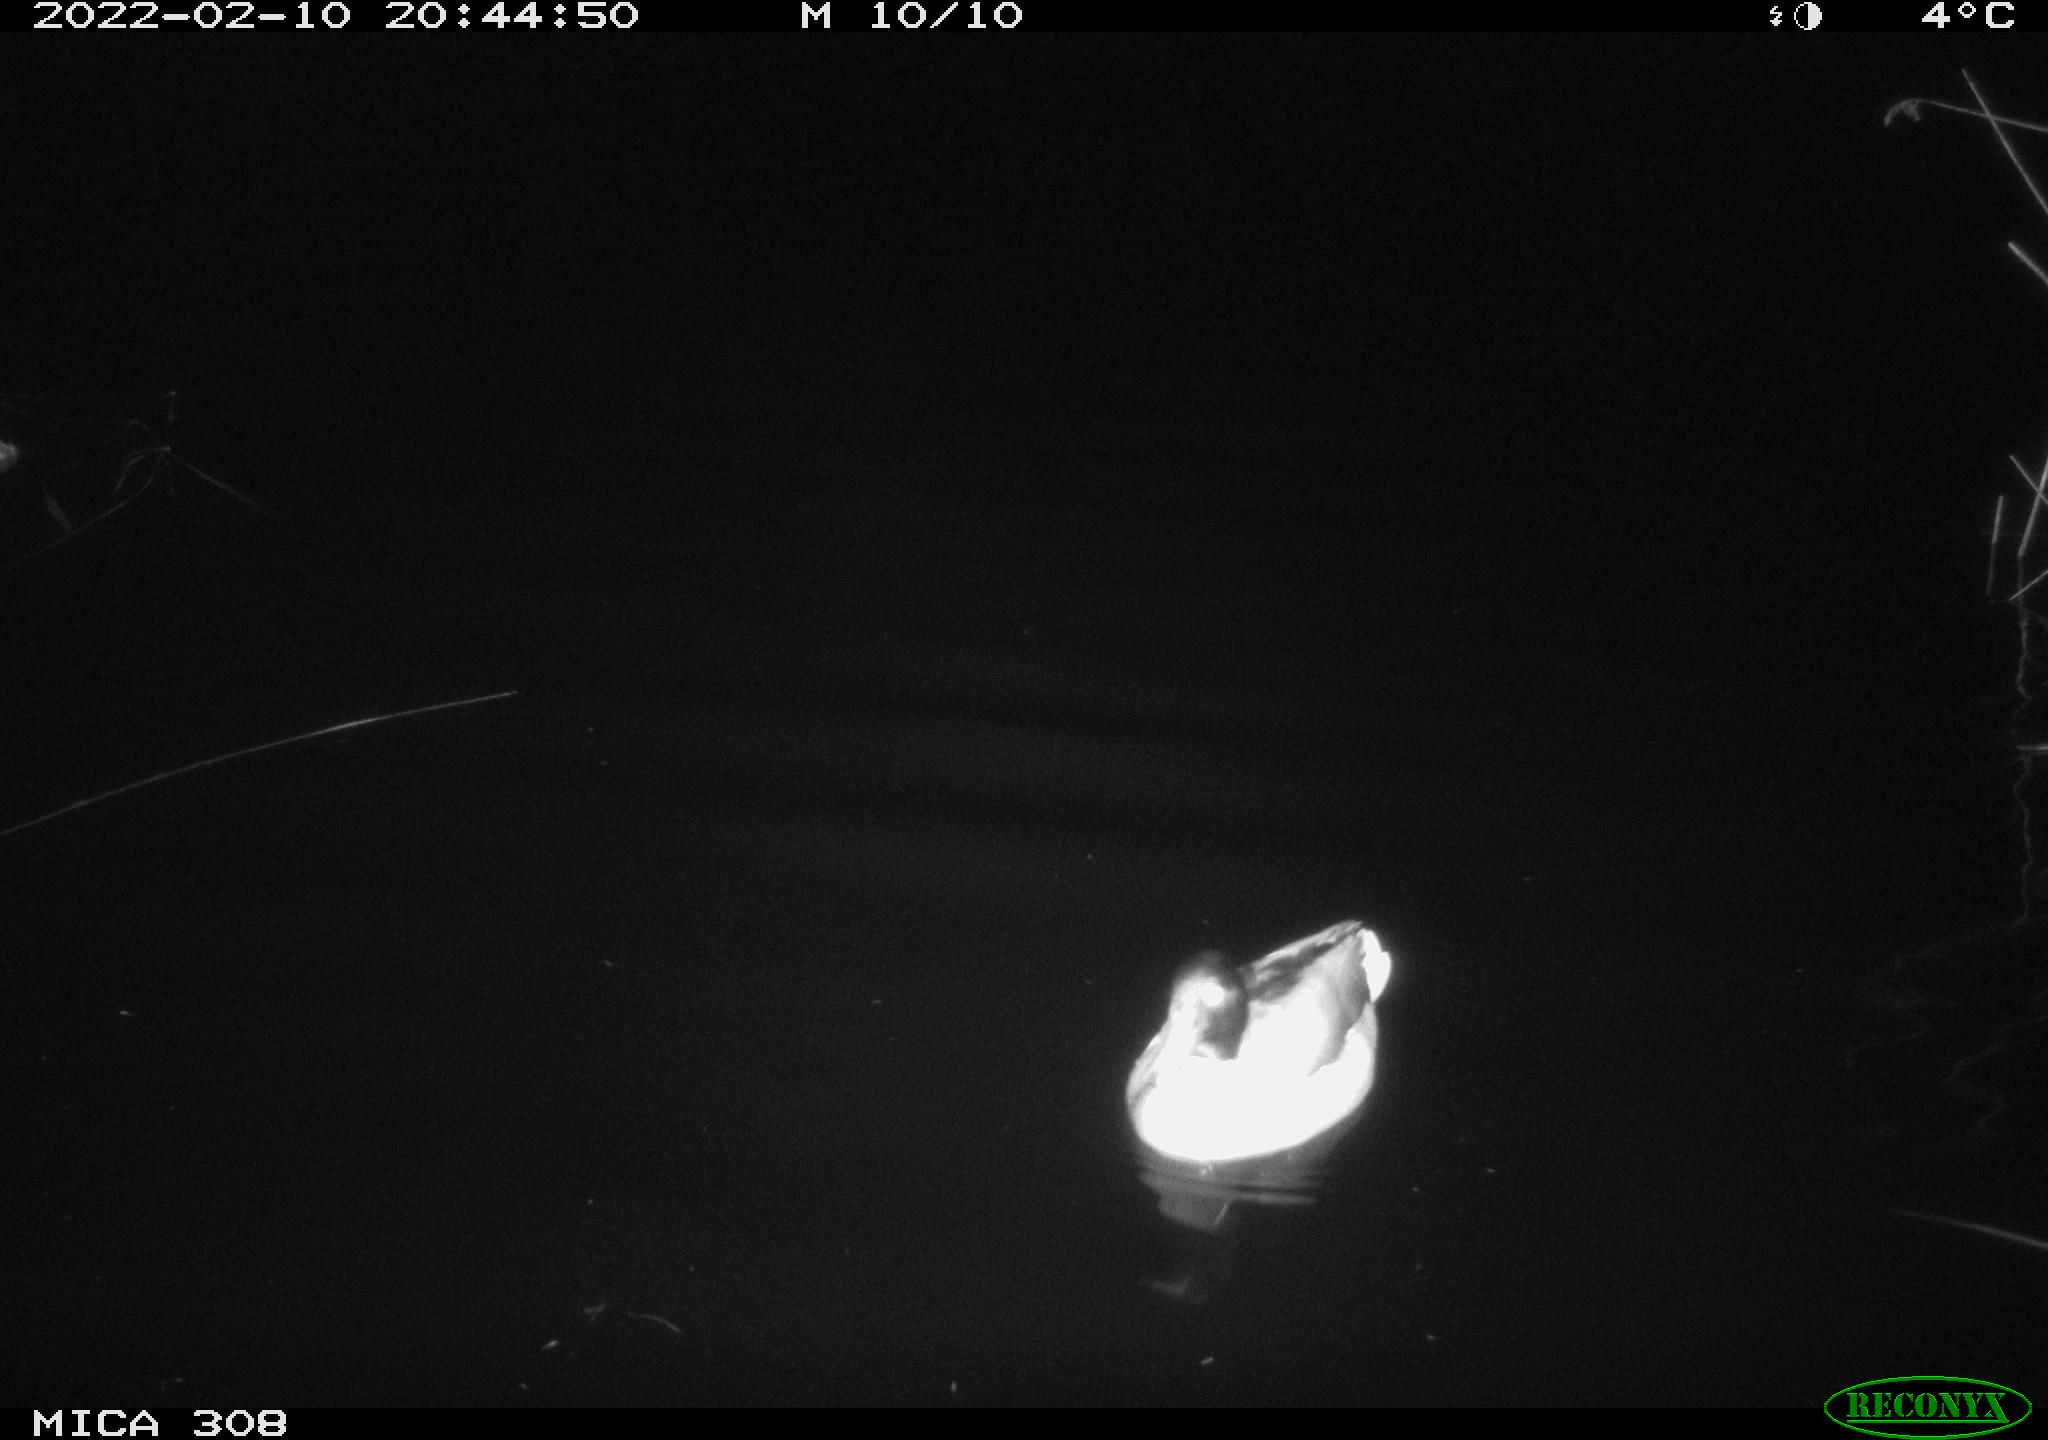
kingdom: Animalia
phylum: Chordata
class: Aves
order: Anseriformes
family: Anatidae
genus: Anas
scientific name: Anas platyrhynchos
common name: Mallard
